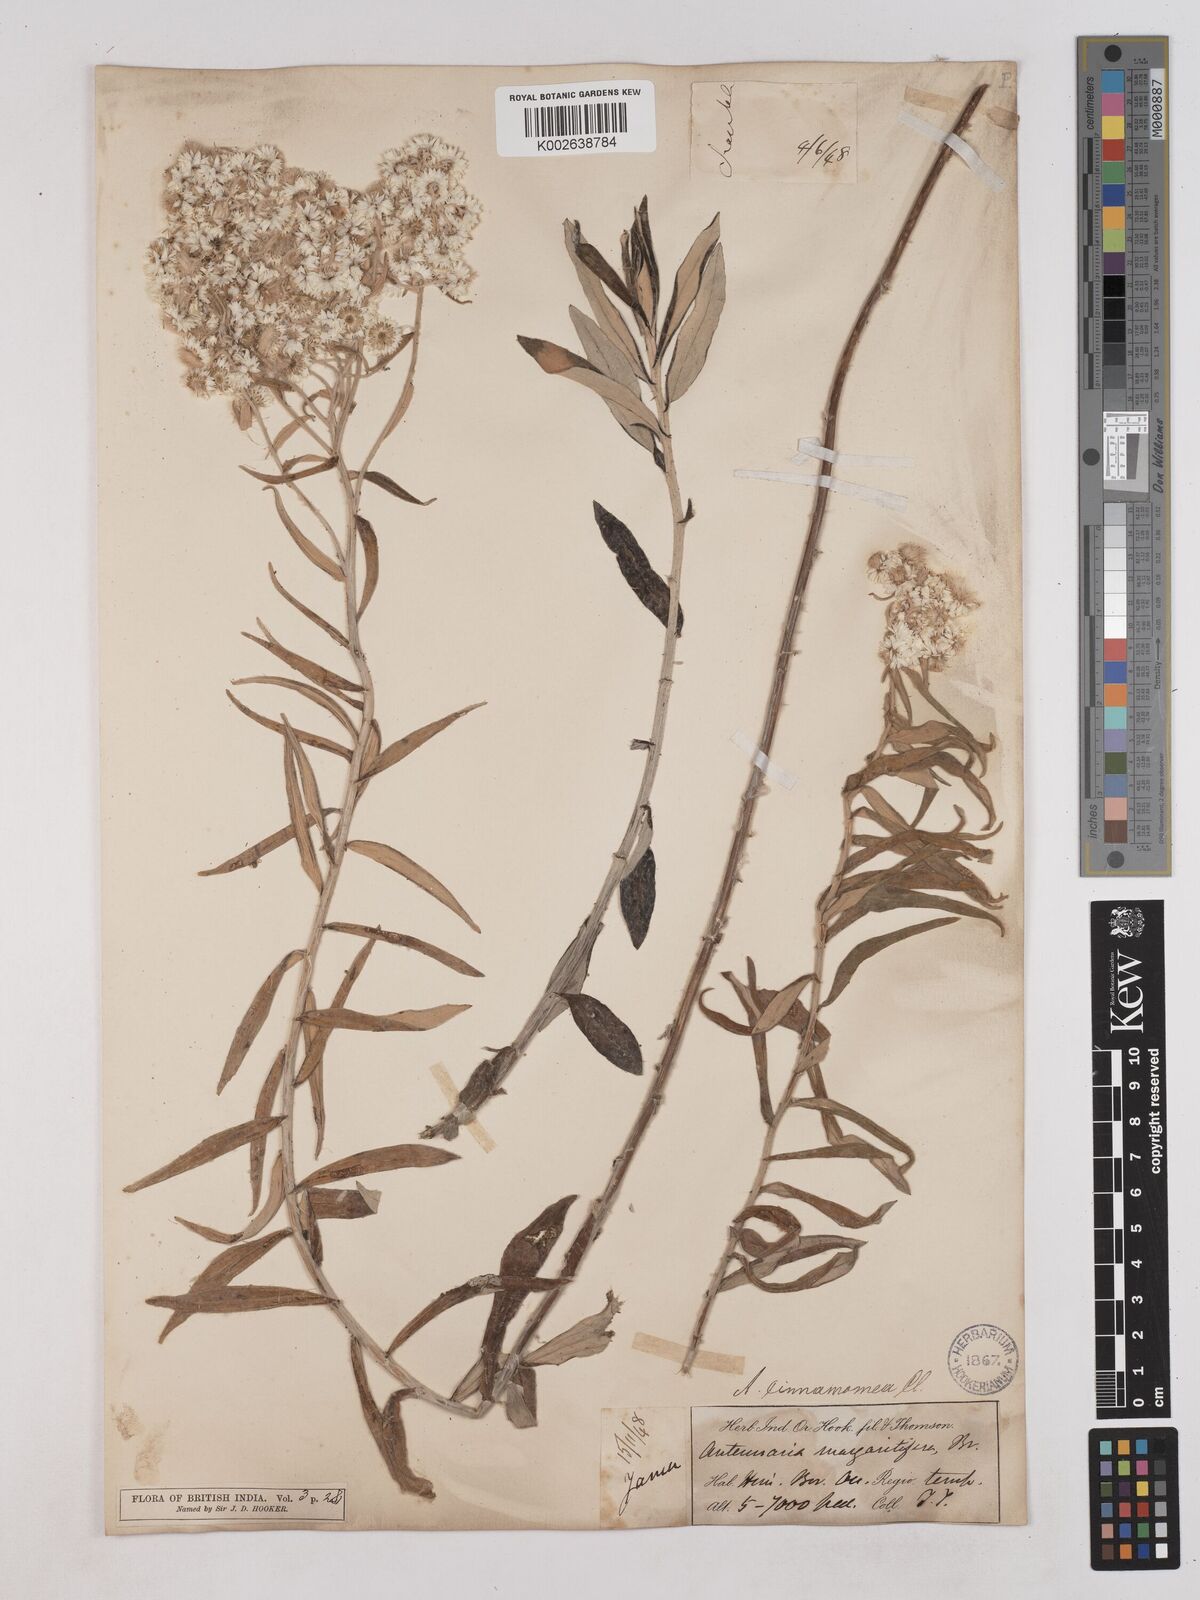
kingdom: Plantae
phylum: Tracheophyta
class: Magnoliopsida
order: Asterales
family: Asteraceae
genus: Anaphalis
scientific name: Anaphalis marcescens
